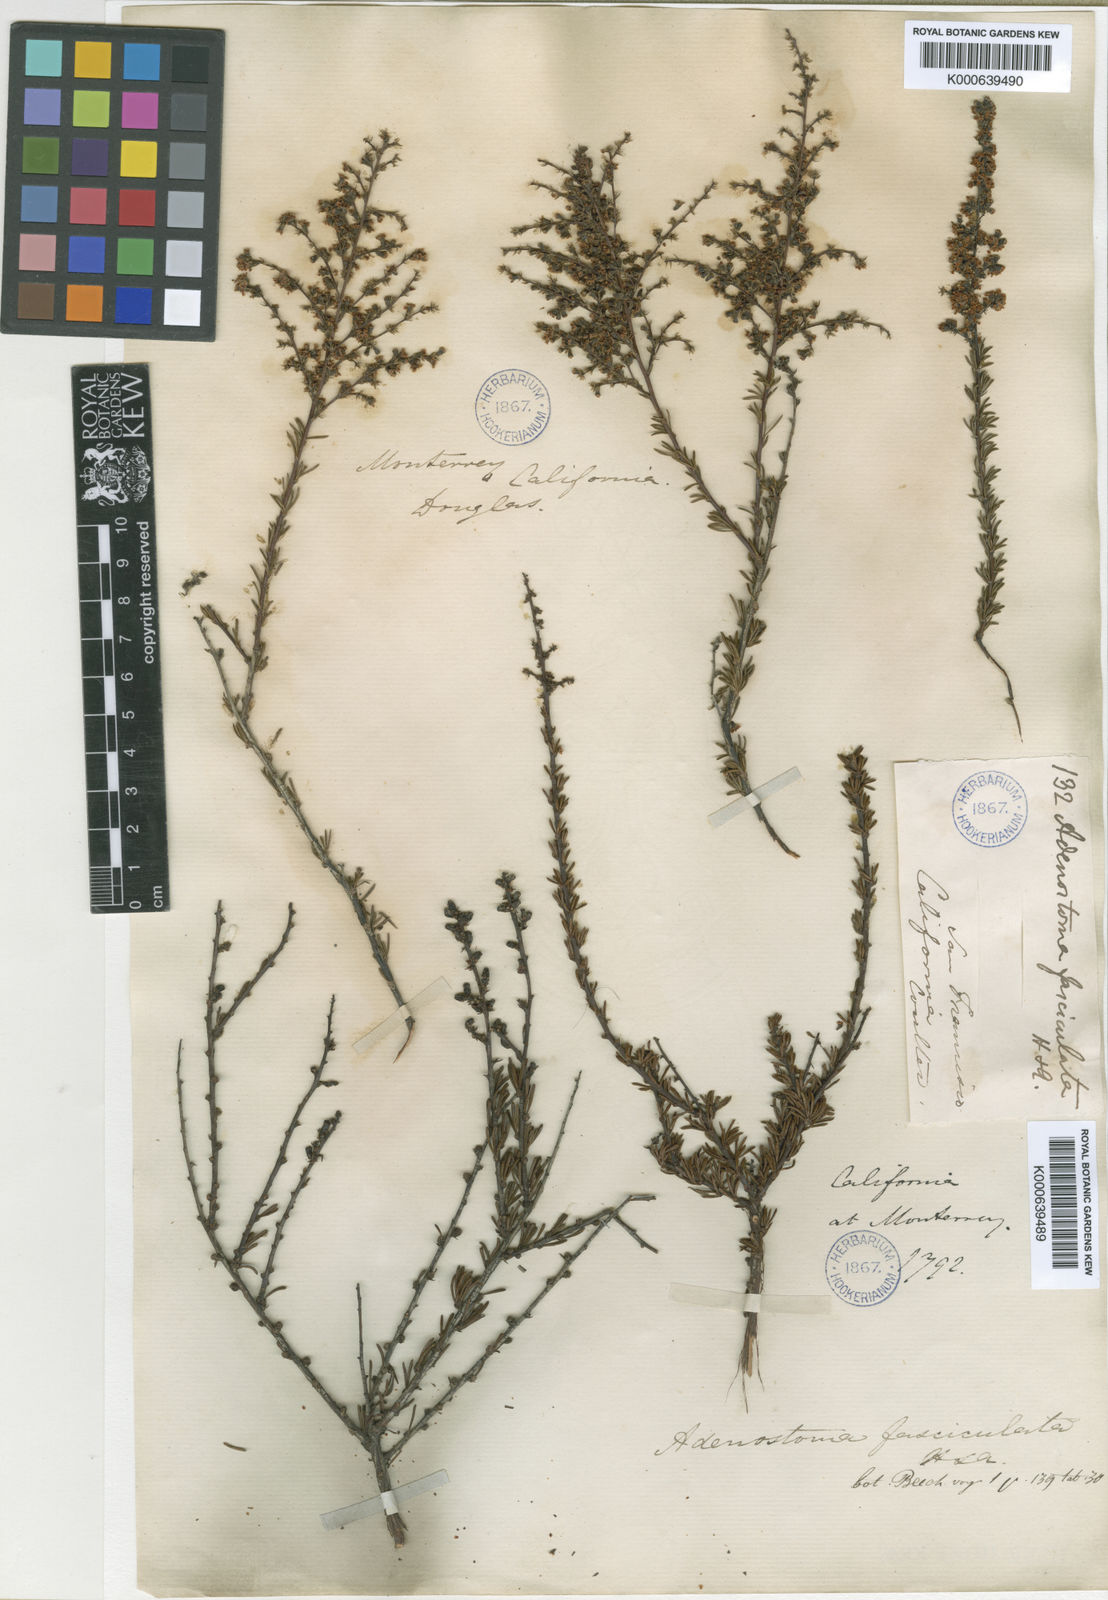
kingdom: Plantae
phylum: Tracheophyta
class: Magnoliopsida
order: Rosales
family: Rosaceae
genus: Adenostoma
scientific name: Adenostoma fasciculatum
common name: Chamise
